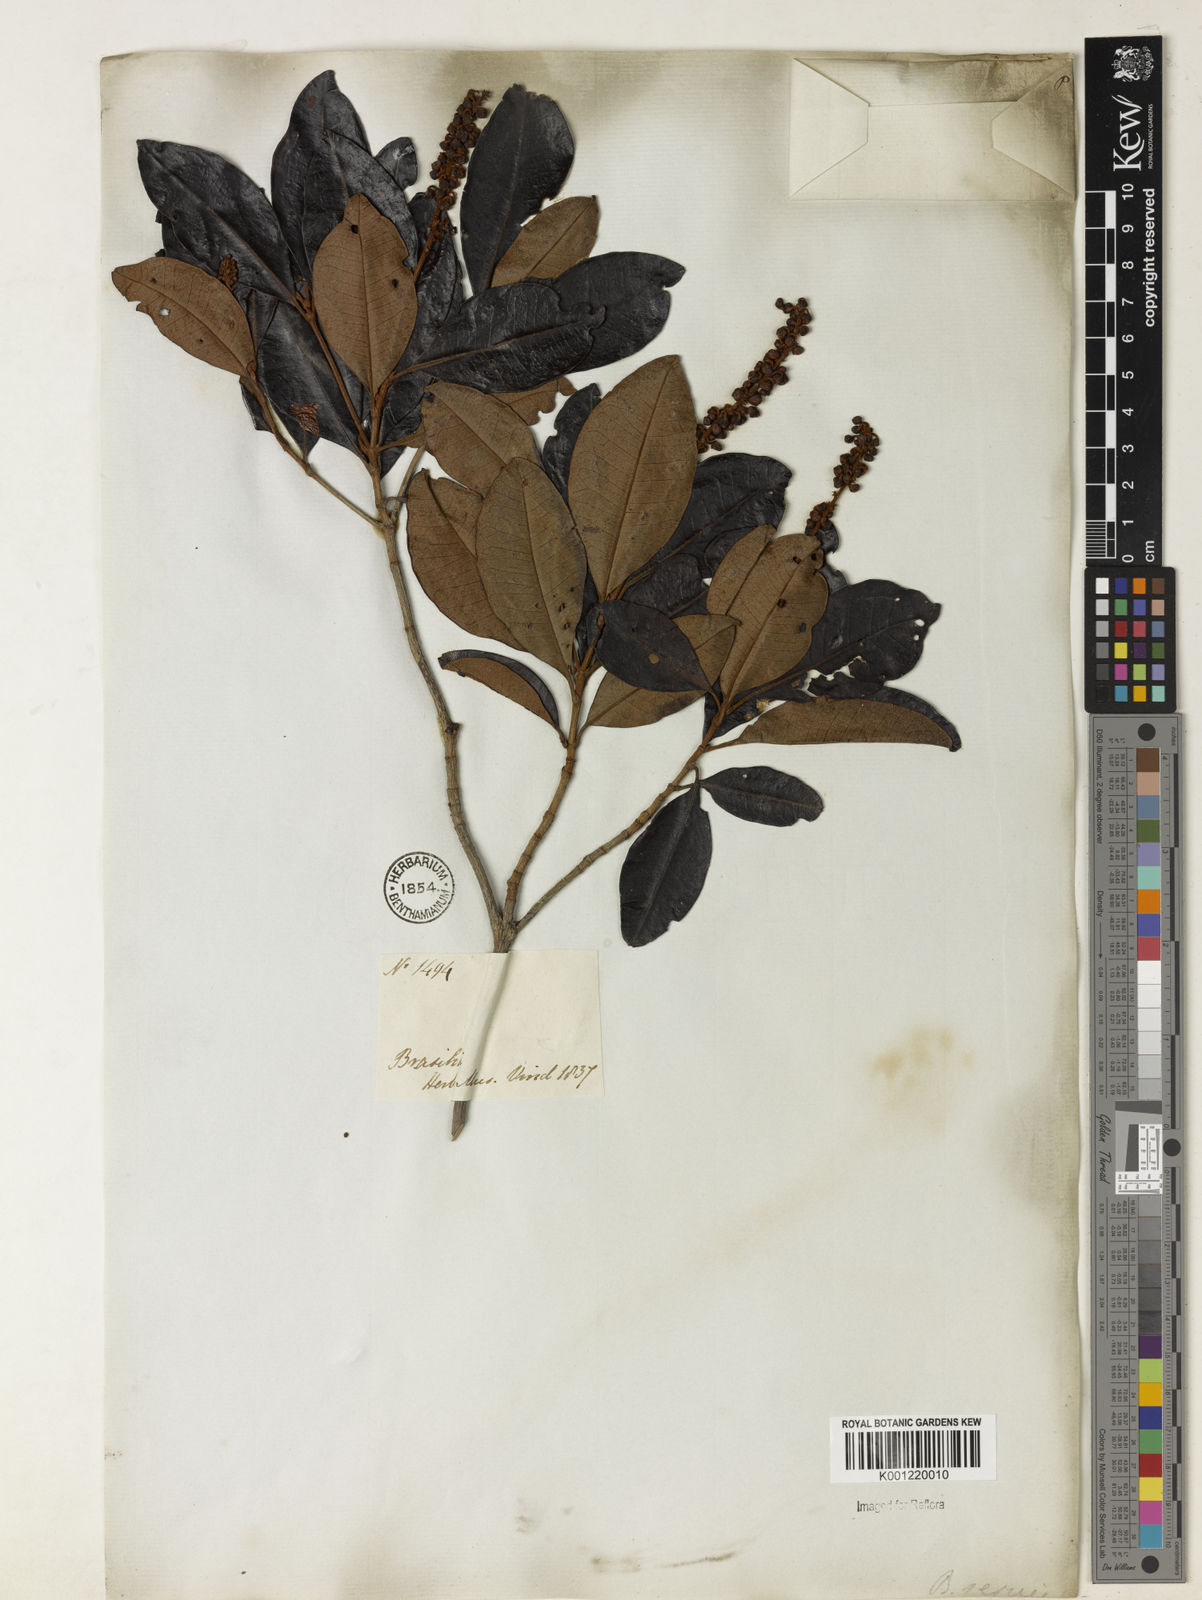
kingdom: Plantae
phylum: Tracheophyta
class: Magnoliopsida
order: Malpighiales
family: Malpighiaceae
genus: Byrsonima
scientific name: Byrsonima sericea
